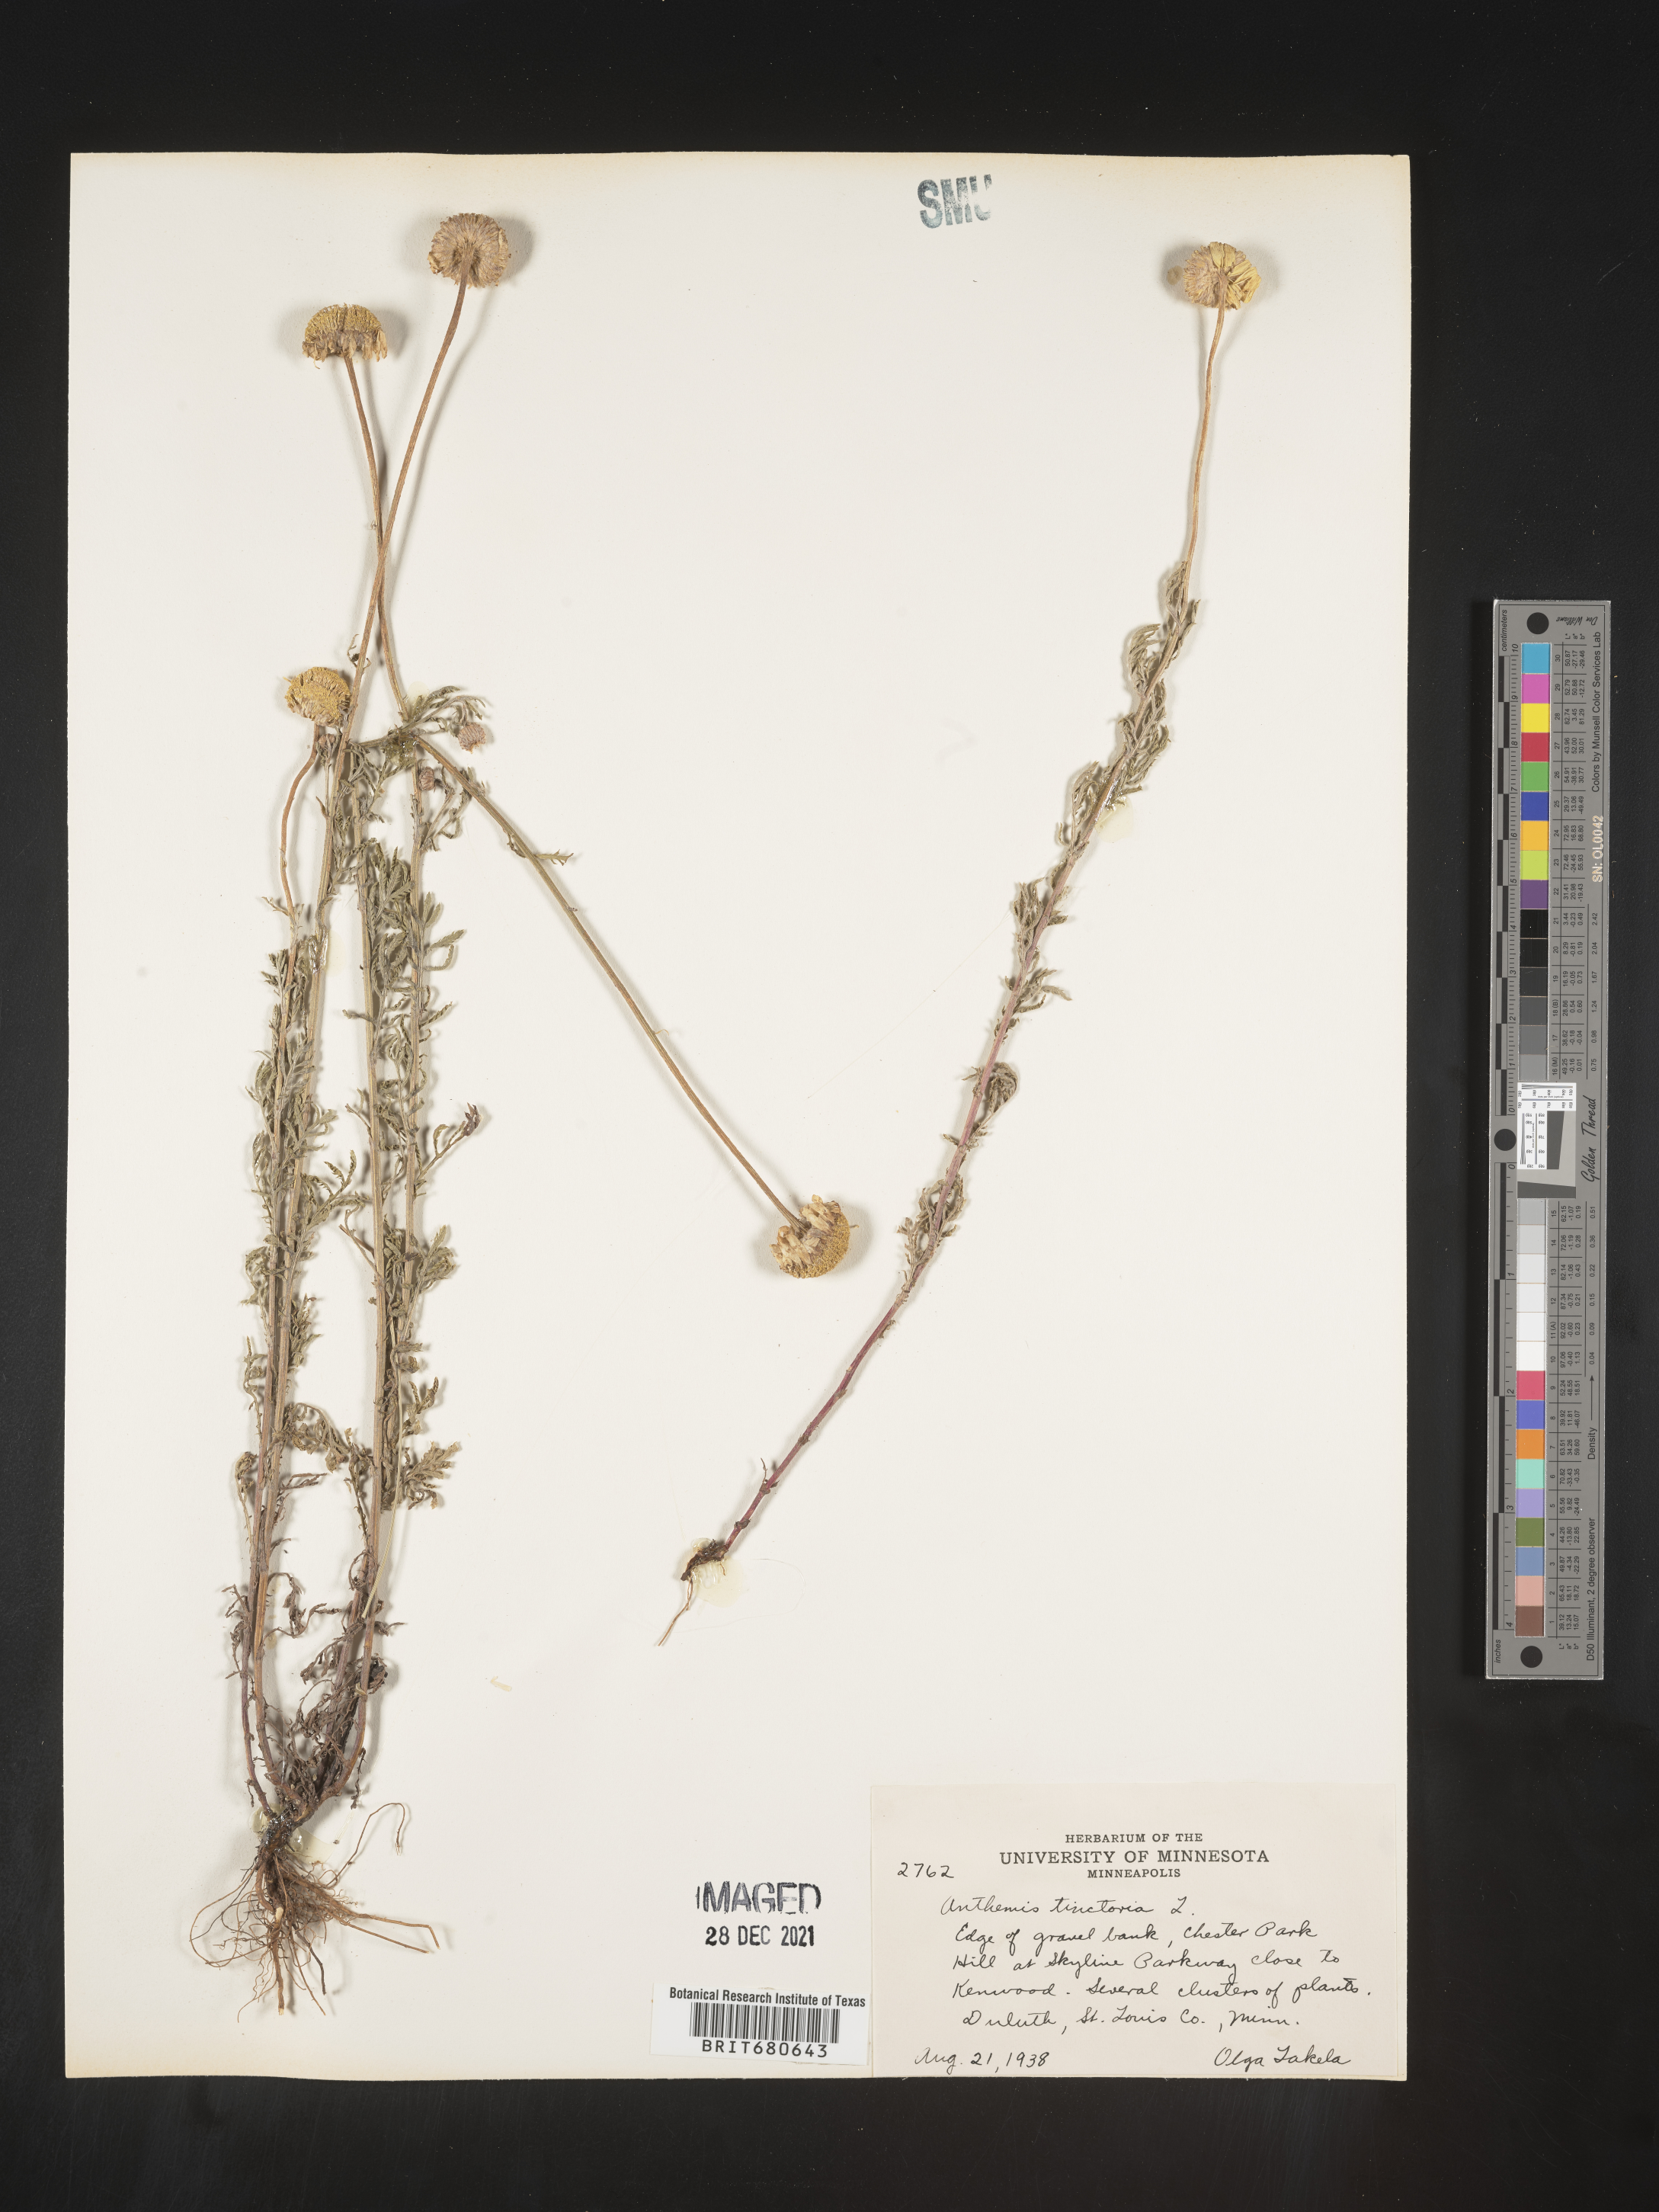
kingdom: Plantae
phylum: Tracheophyta
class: Magnoliopsida
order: Asterales
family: Asteraceae
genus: Anthemis
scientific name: Anthemis
